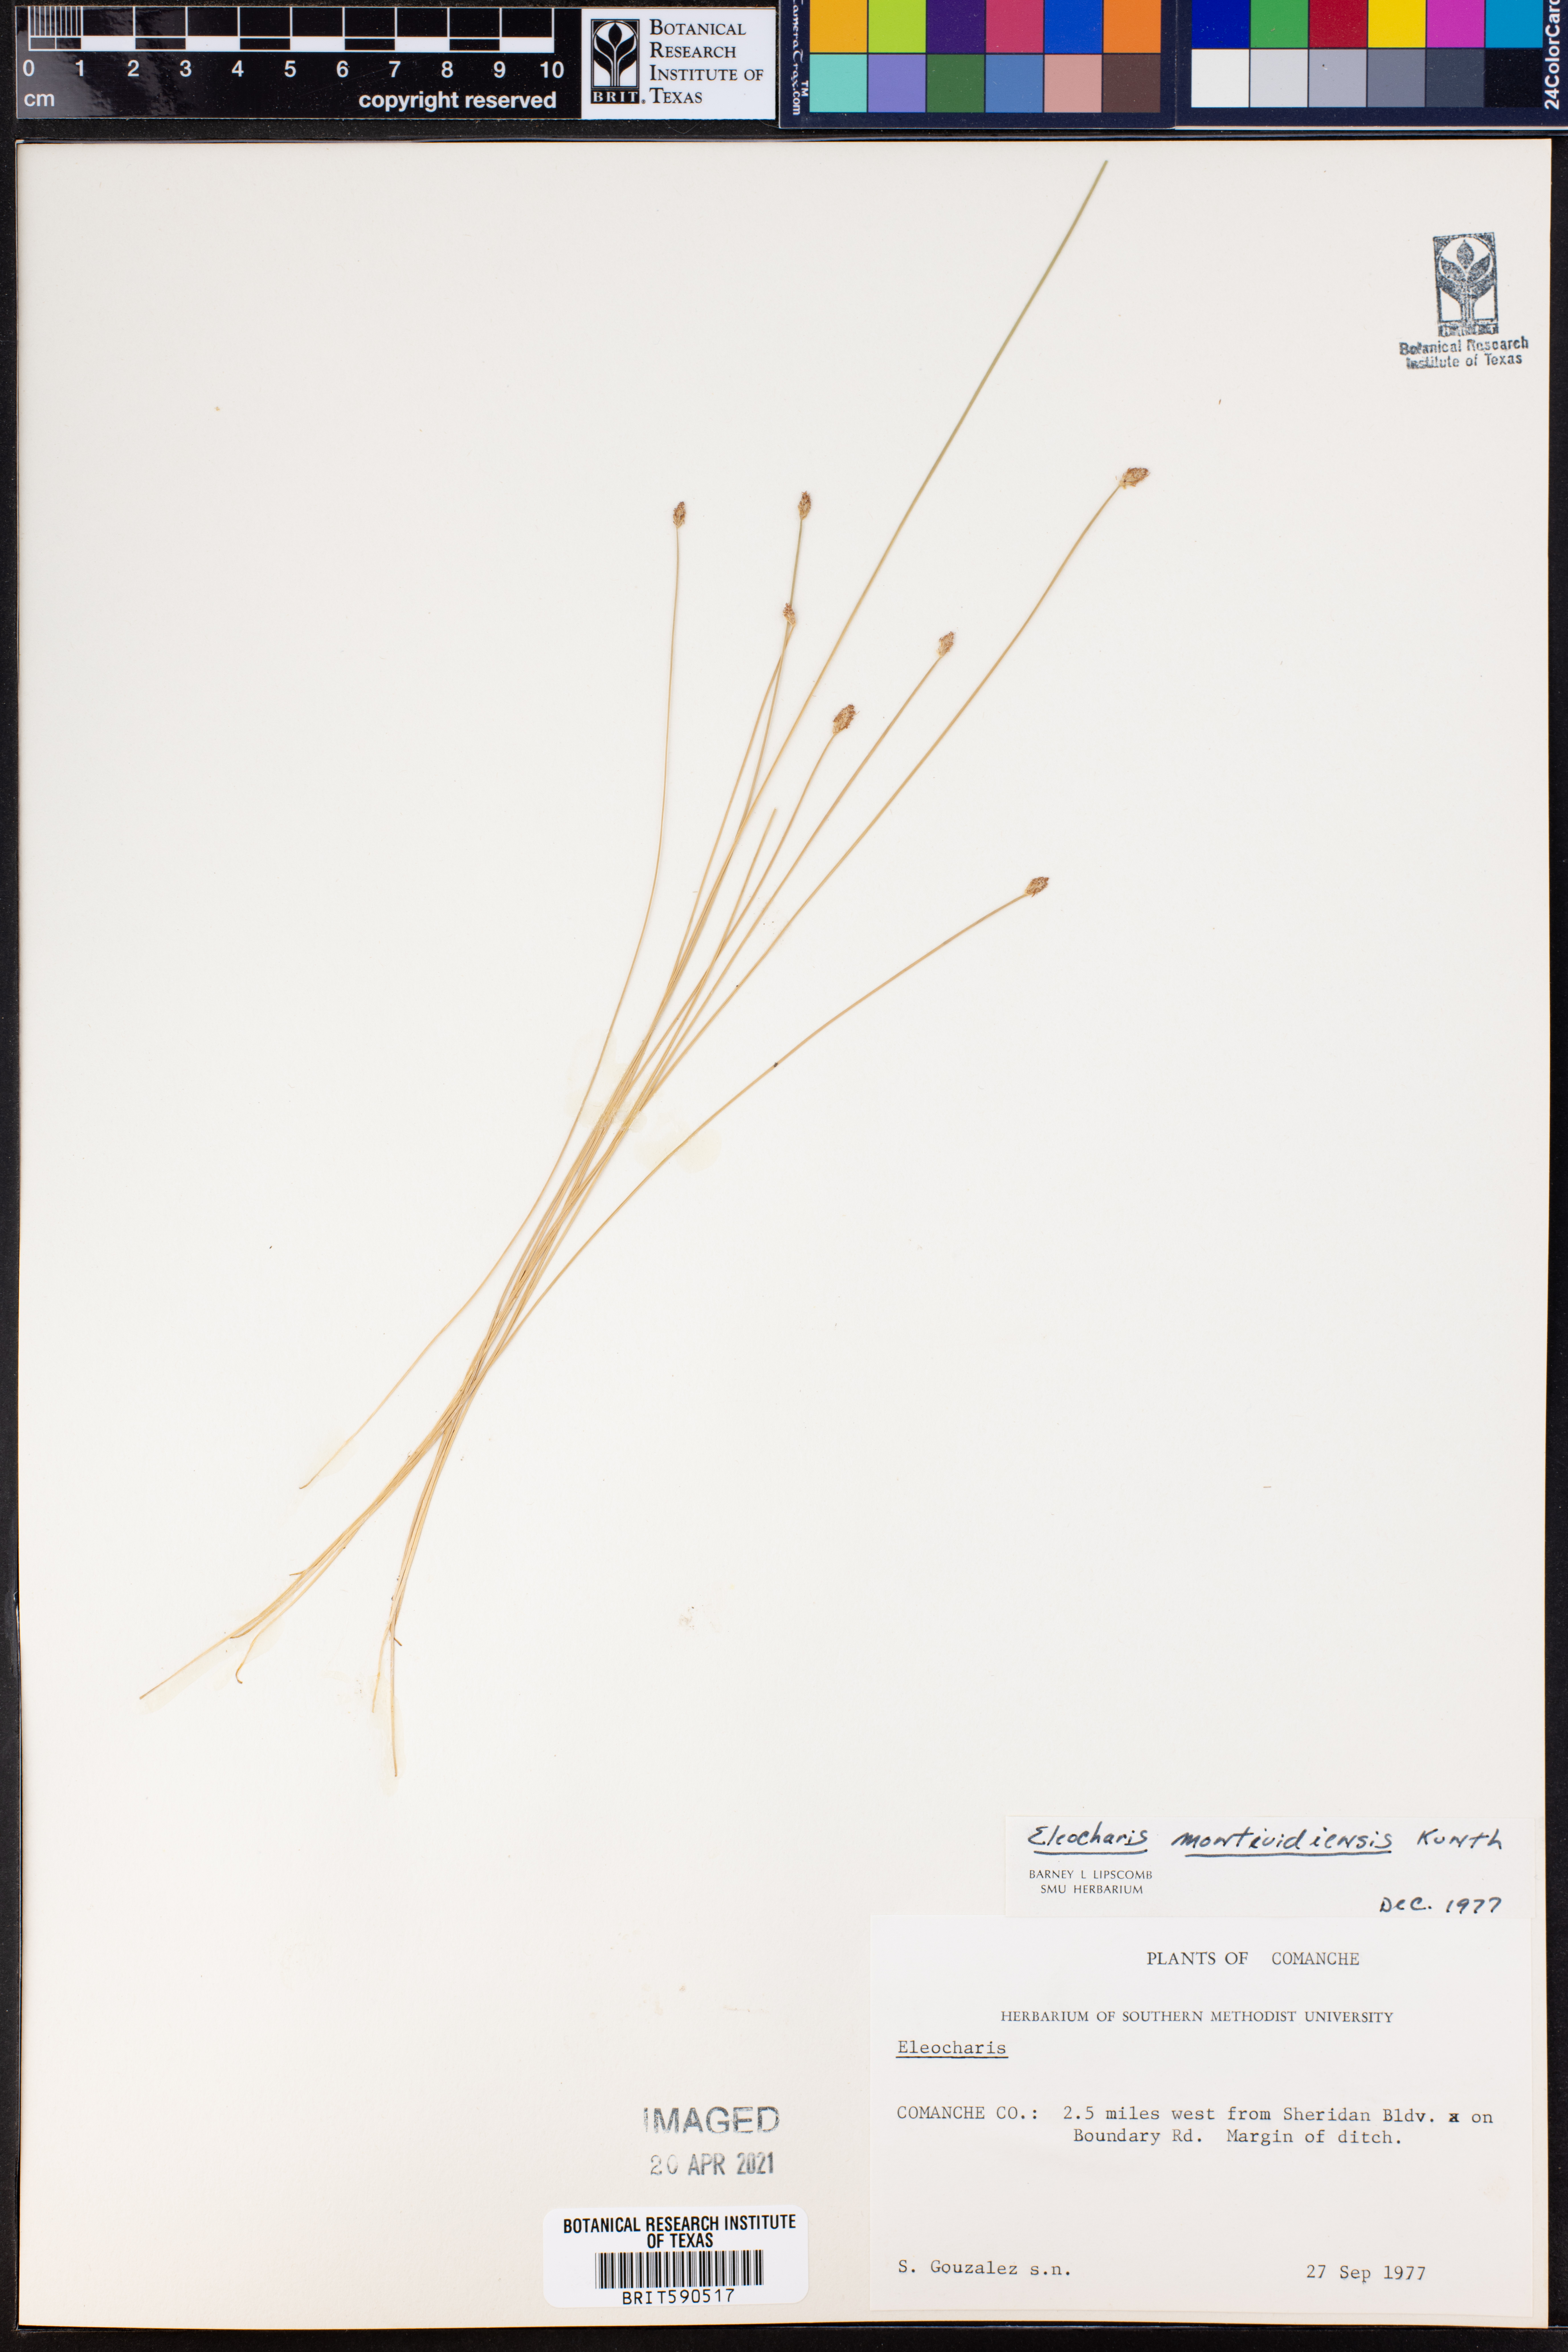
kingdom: Plantae
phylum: Tracheophyta
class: Liliopsida
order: Poales
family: Cyperaceae
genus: Eleocharis
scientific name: Eleocharis montevidensis
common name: Sand spike-rush
